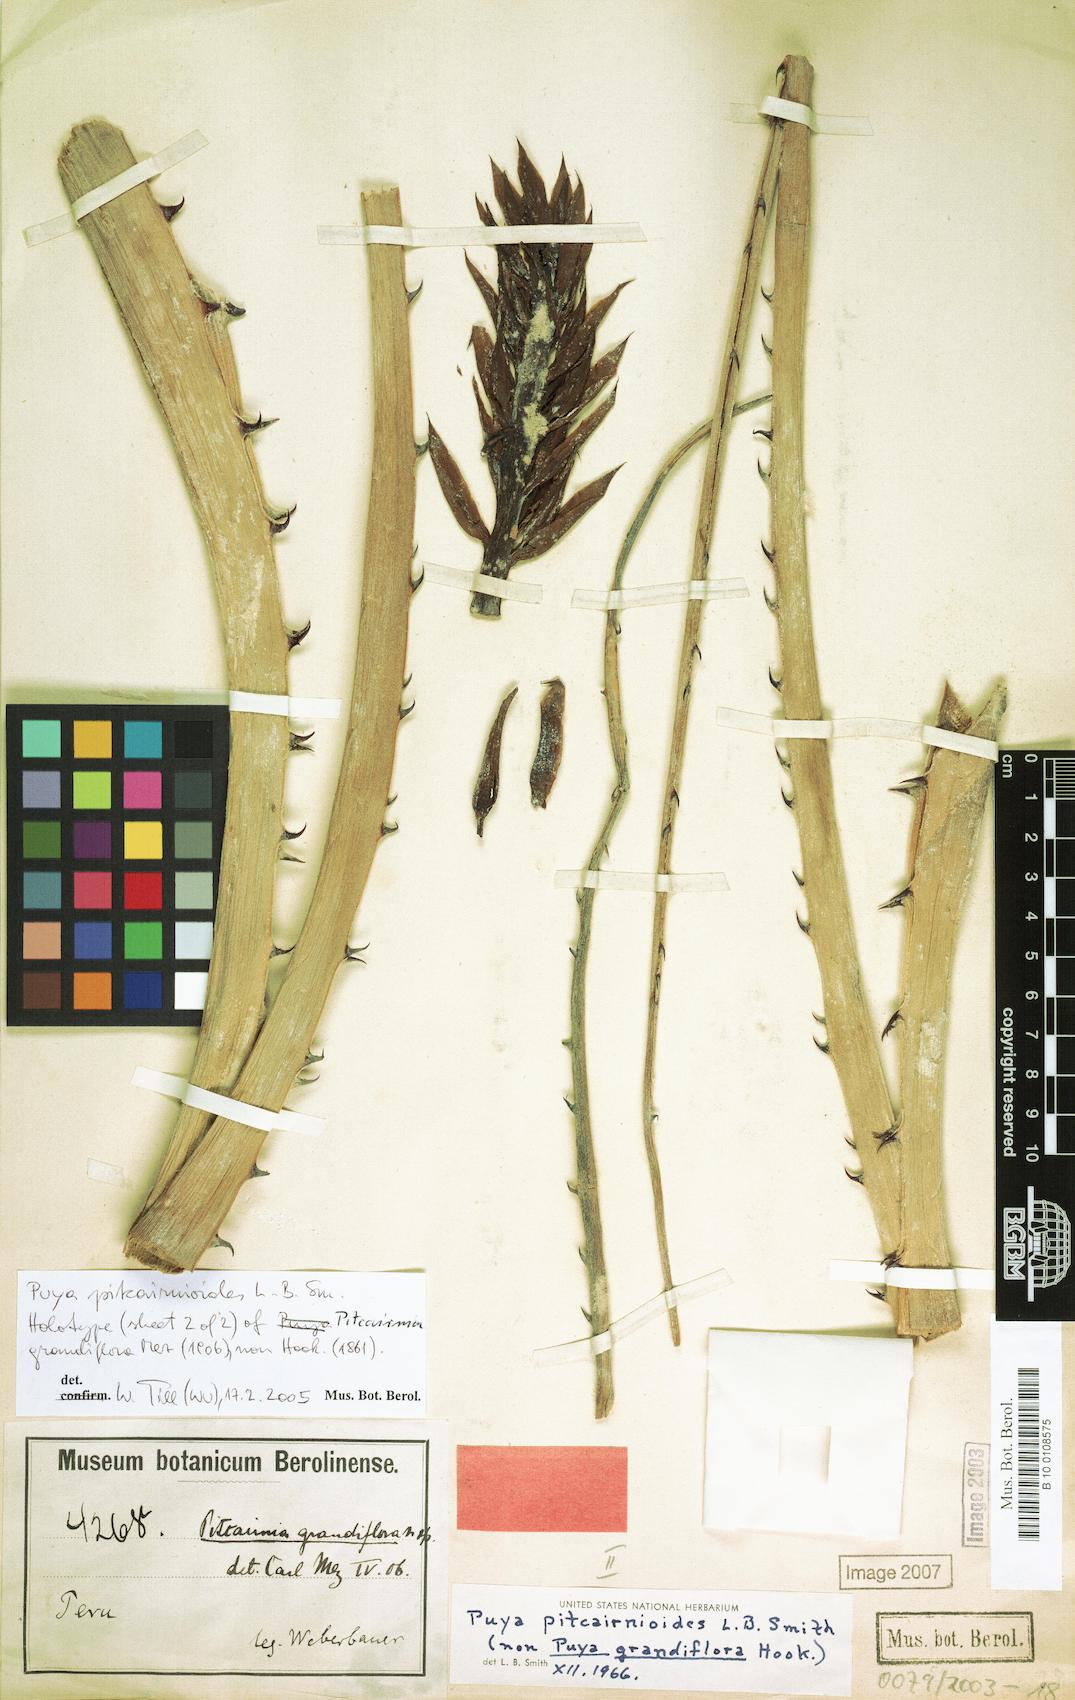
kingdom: Plantae
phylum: Tracheophyta
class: Liliopsida
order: Poales
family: Bromeliaceae
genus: Puya
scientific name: Puya pitcairnioides
